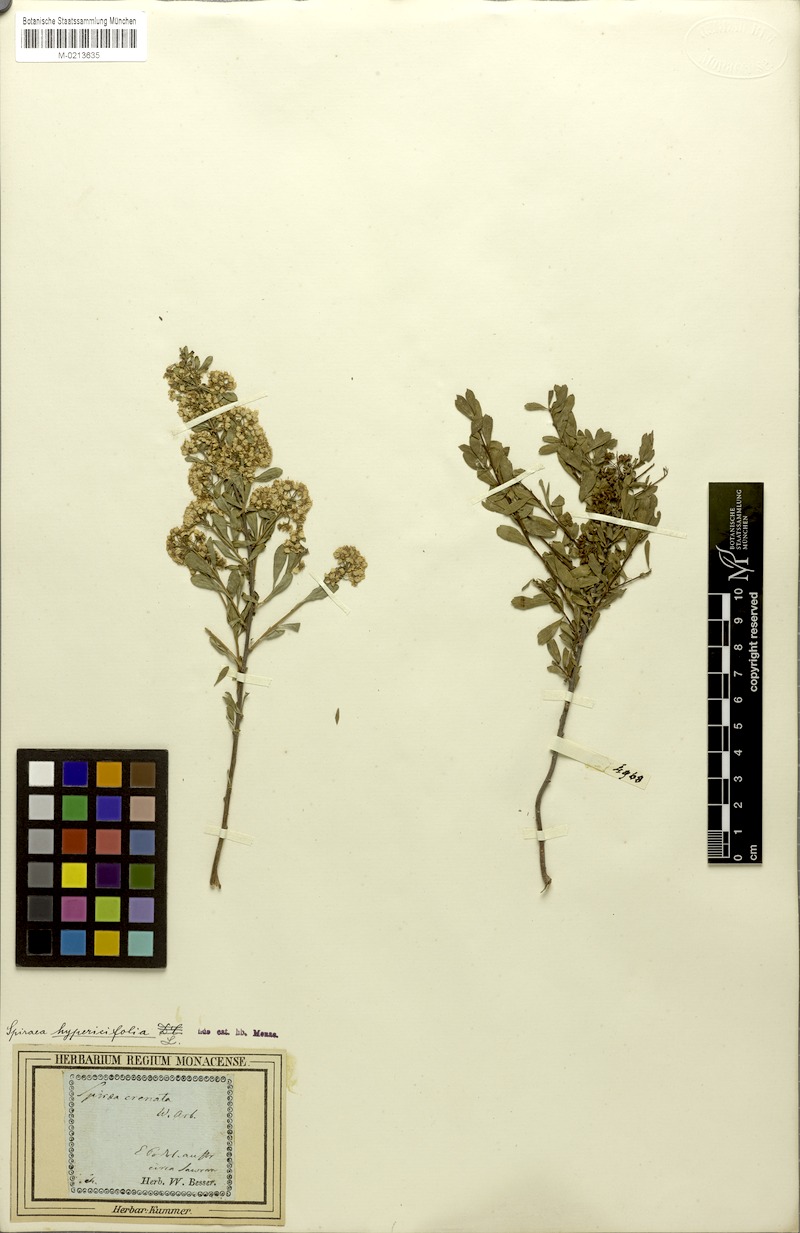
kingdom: Plantae
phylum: Tracheophyta
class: Magnoliopsida
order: Rosales
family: Rosaceae
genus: Spiraea
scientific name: Spiraea hypericifolia
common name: Iberian spirea
